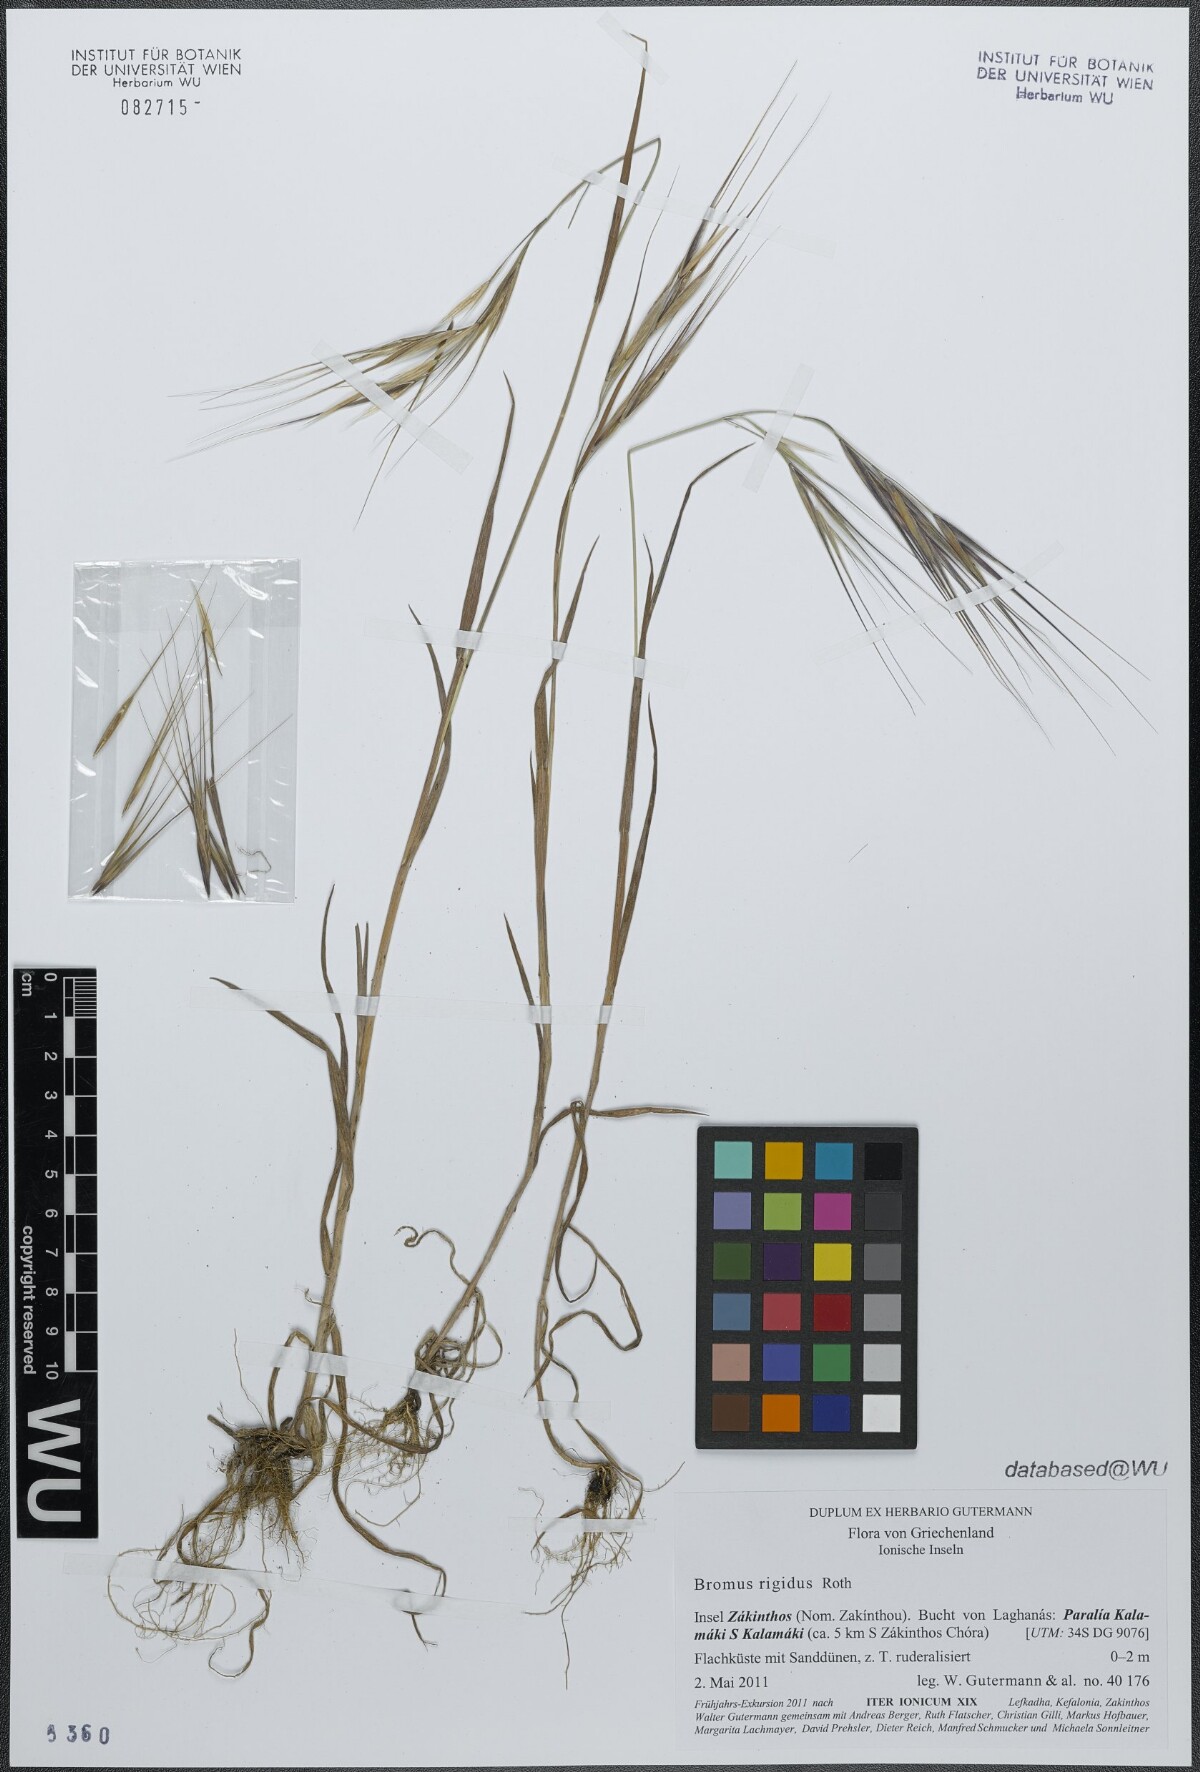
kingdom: Plantae
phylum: Tracheophyta
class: Liliopsida
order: Poales
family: Poaceae
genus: Bromus
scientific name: Bromus rigidus
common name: Ripgut brome
